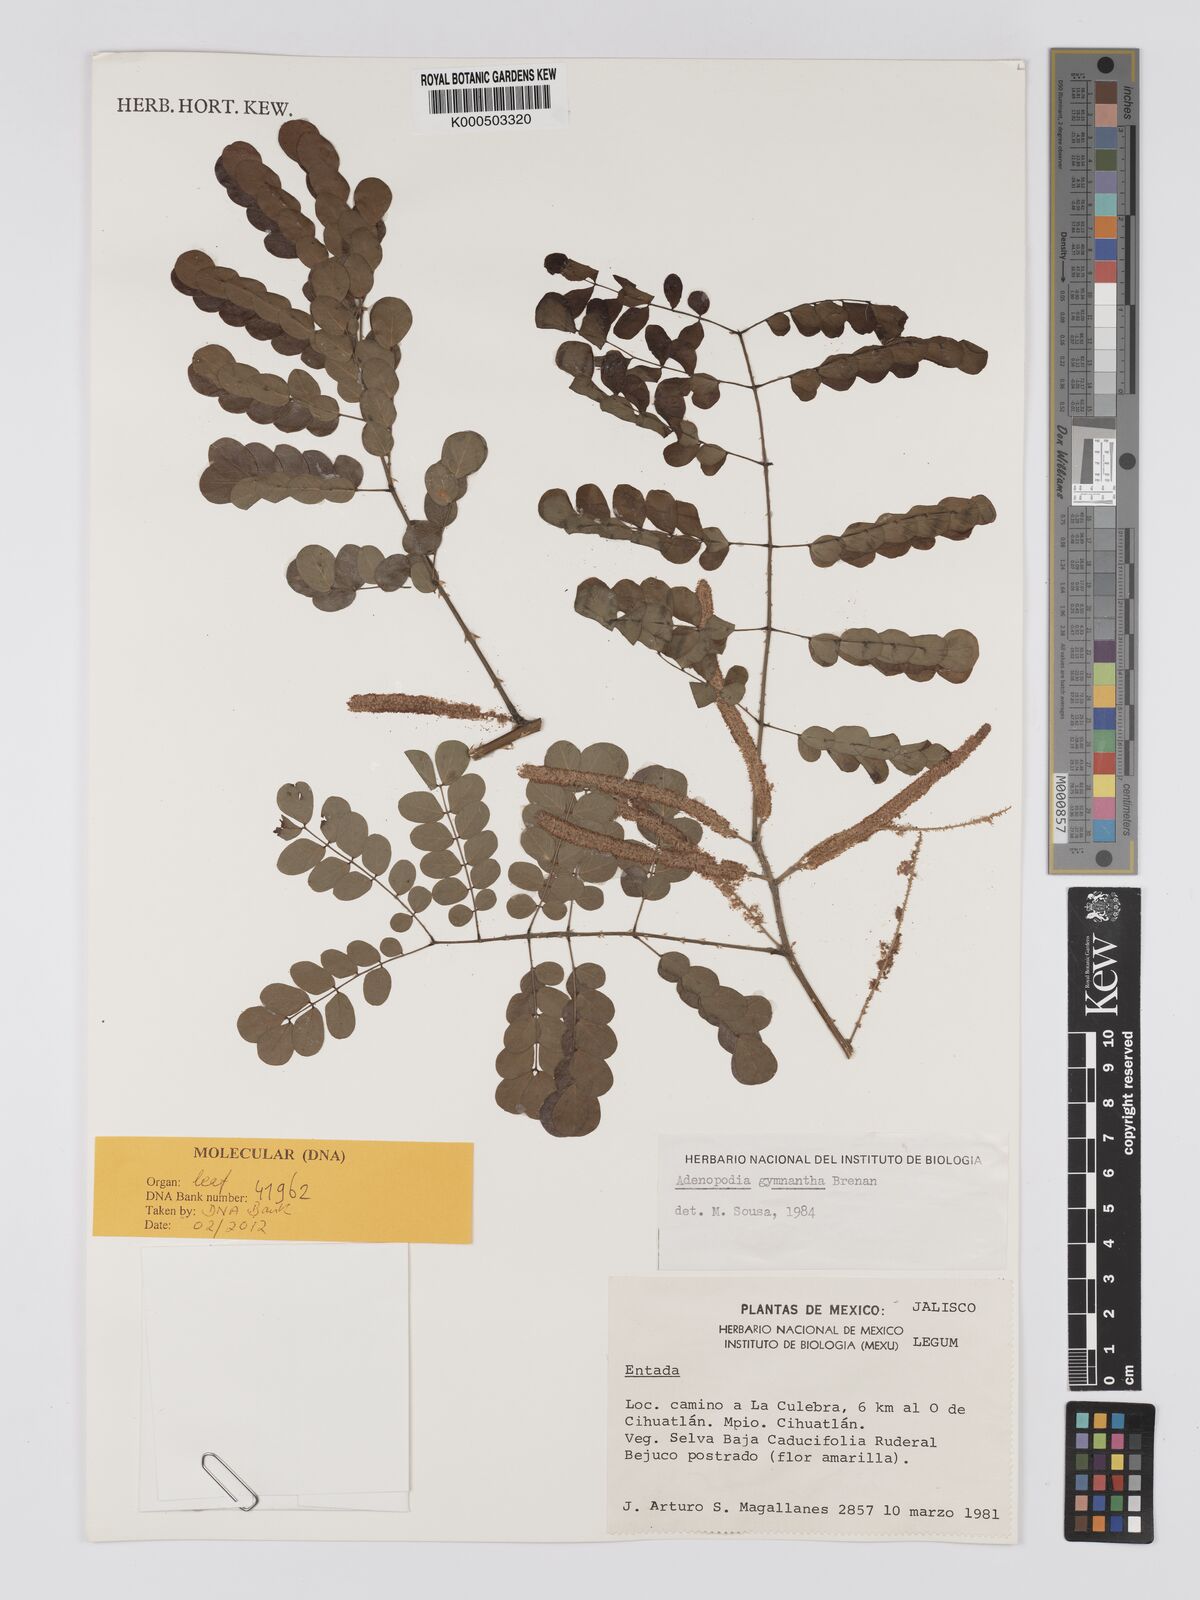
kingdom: Plantae
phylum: Tracheophyta
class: Magnoliopsida
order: Fabales
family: Fabaceae
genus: Adenopodia
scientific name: Adenopodia gymnantha
